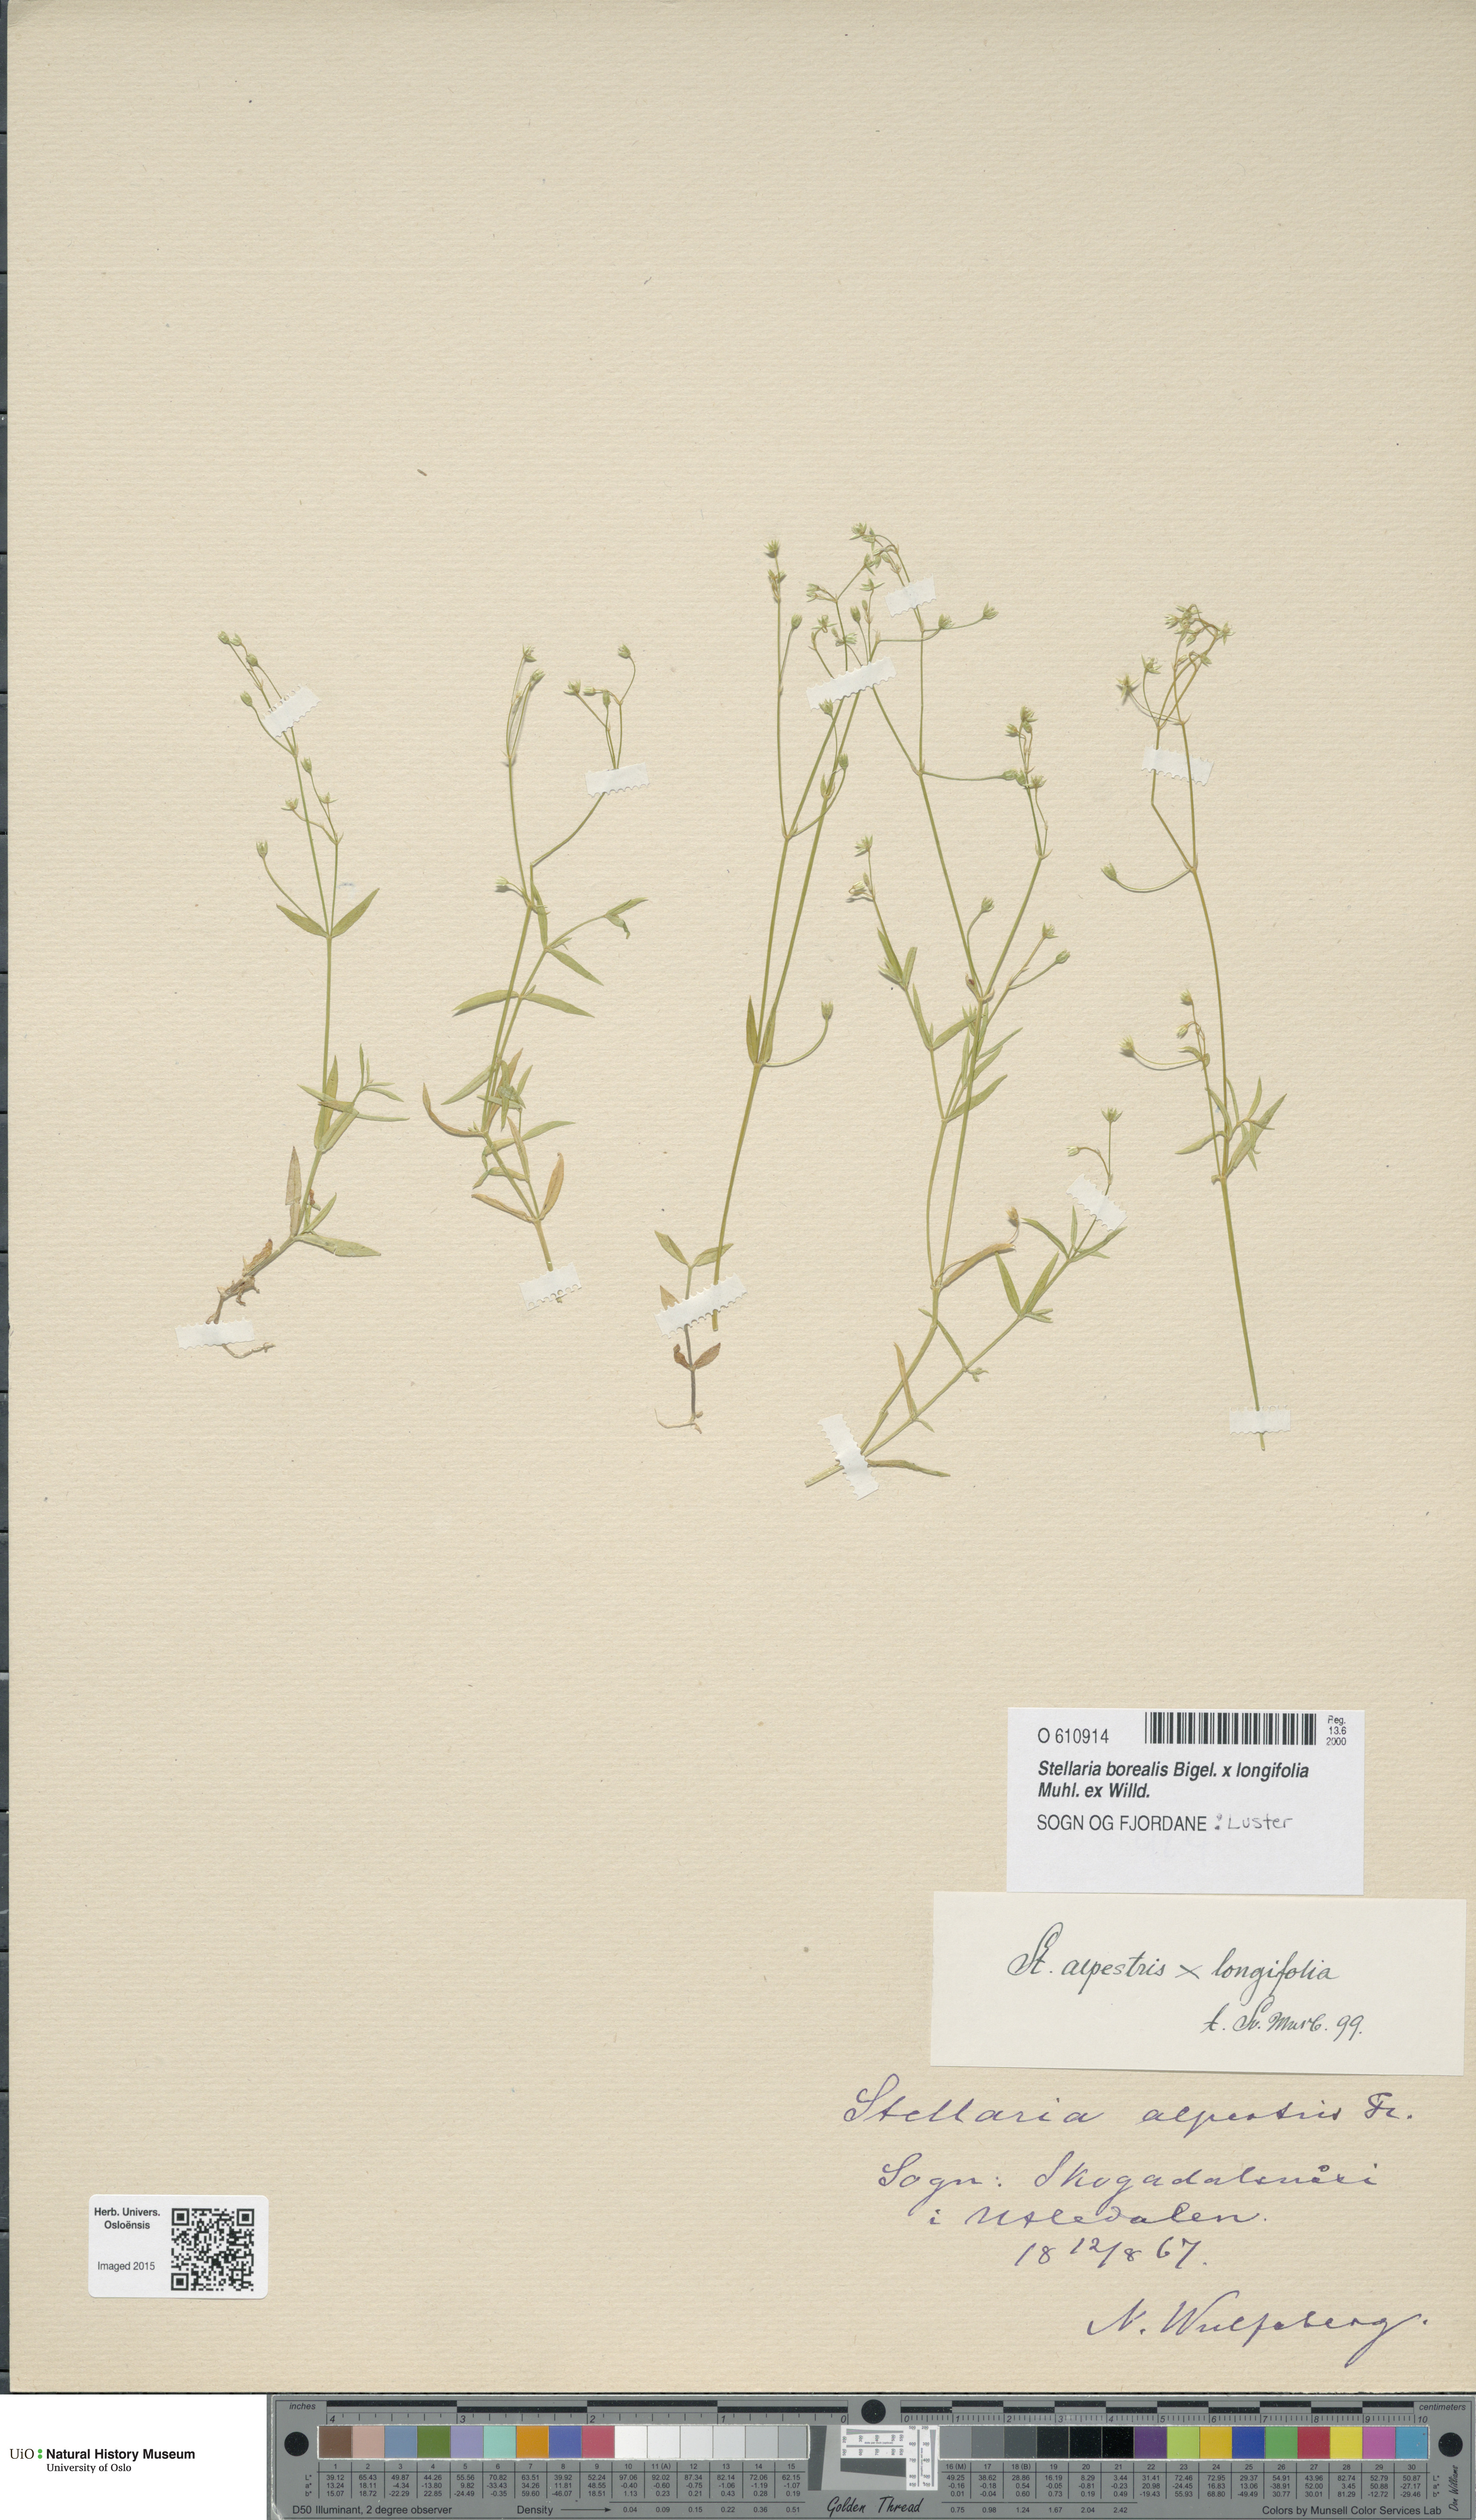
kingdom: Plantae
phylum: Tracheophyta
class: Magnoliopsida
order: Caryophyllales
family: Caryophyllaceae
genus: Stellaria
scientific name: Stellaria
